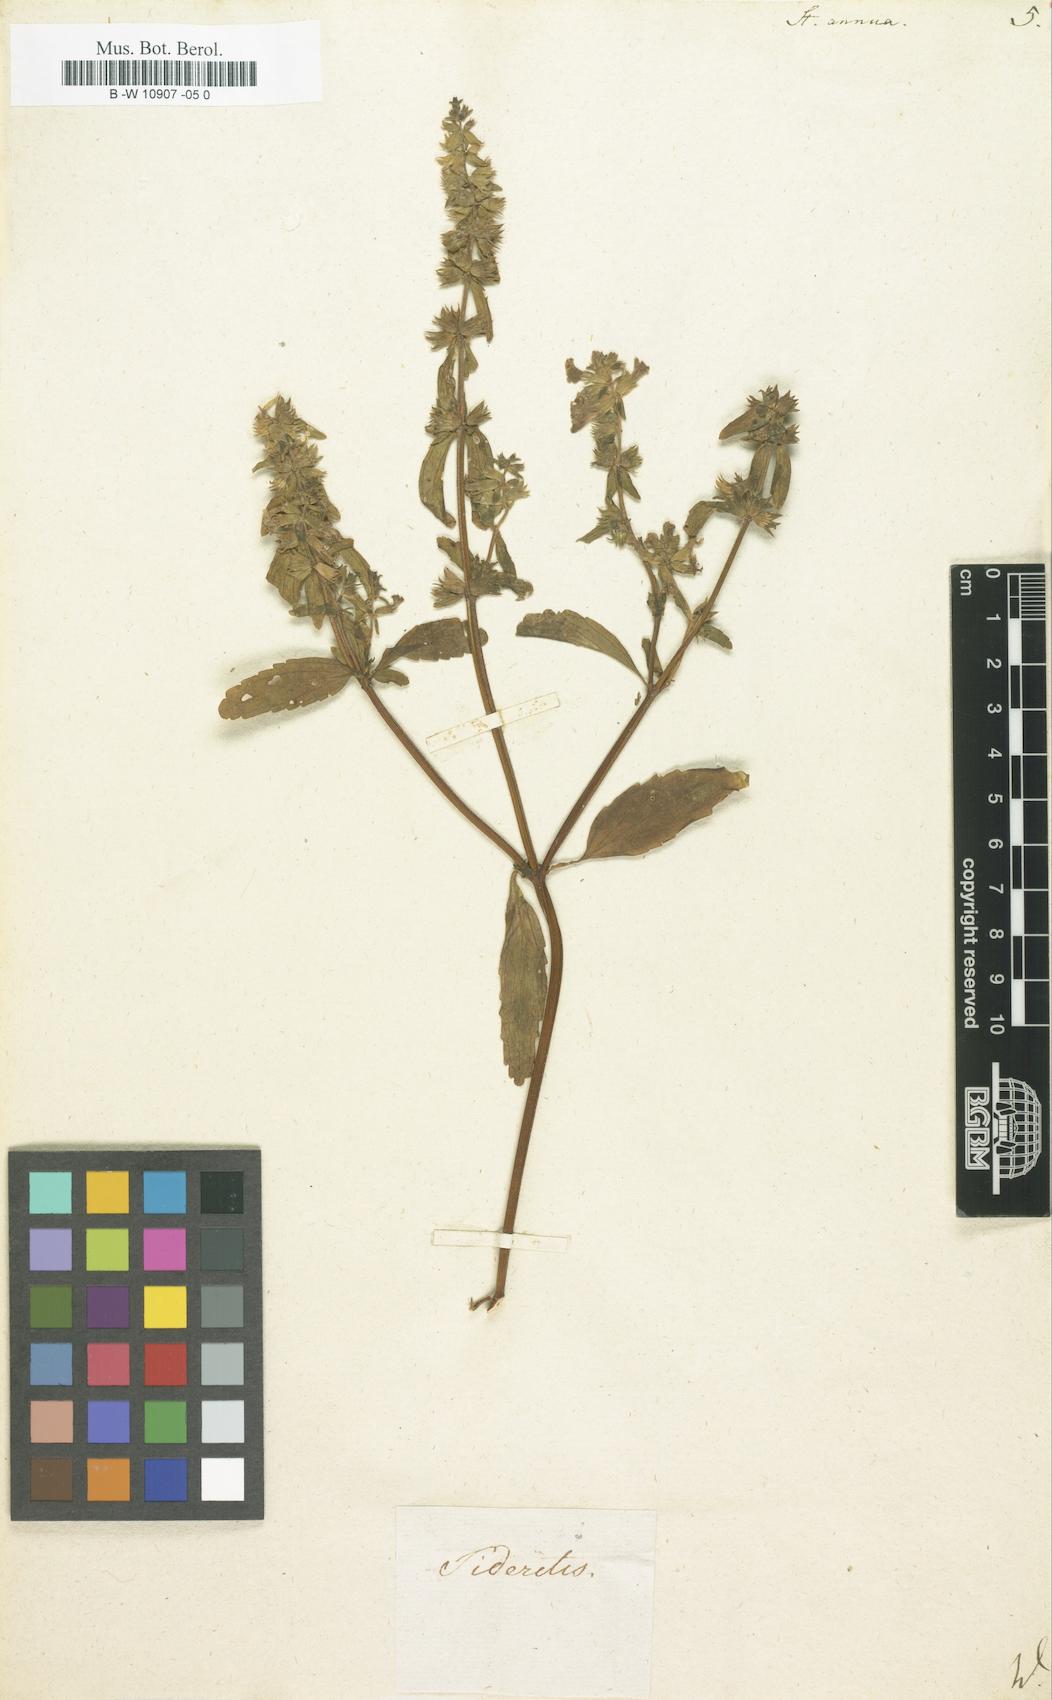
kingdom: Plantae
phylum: Tracheophyta
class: Magnoliopsida
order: Lamiales
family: Lamiaceae
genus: Stachys
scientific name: Stachys annua
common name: Annual yellow-woundwort
